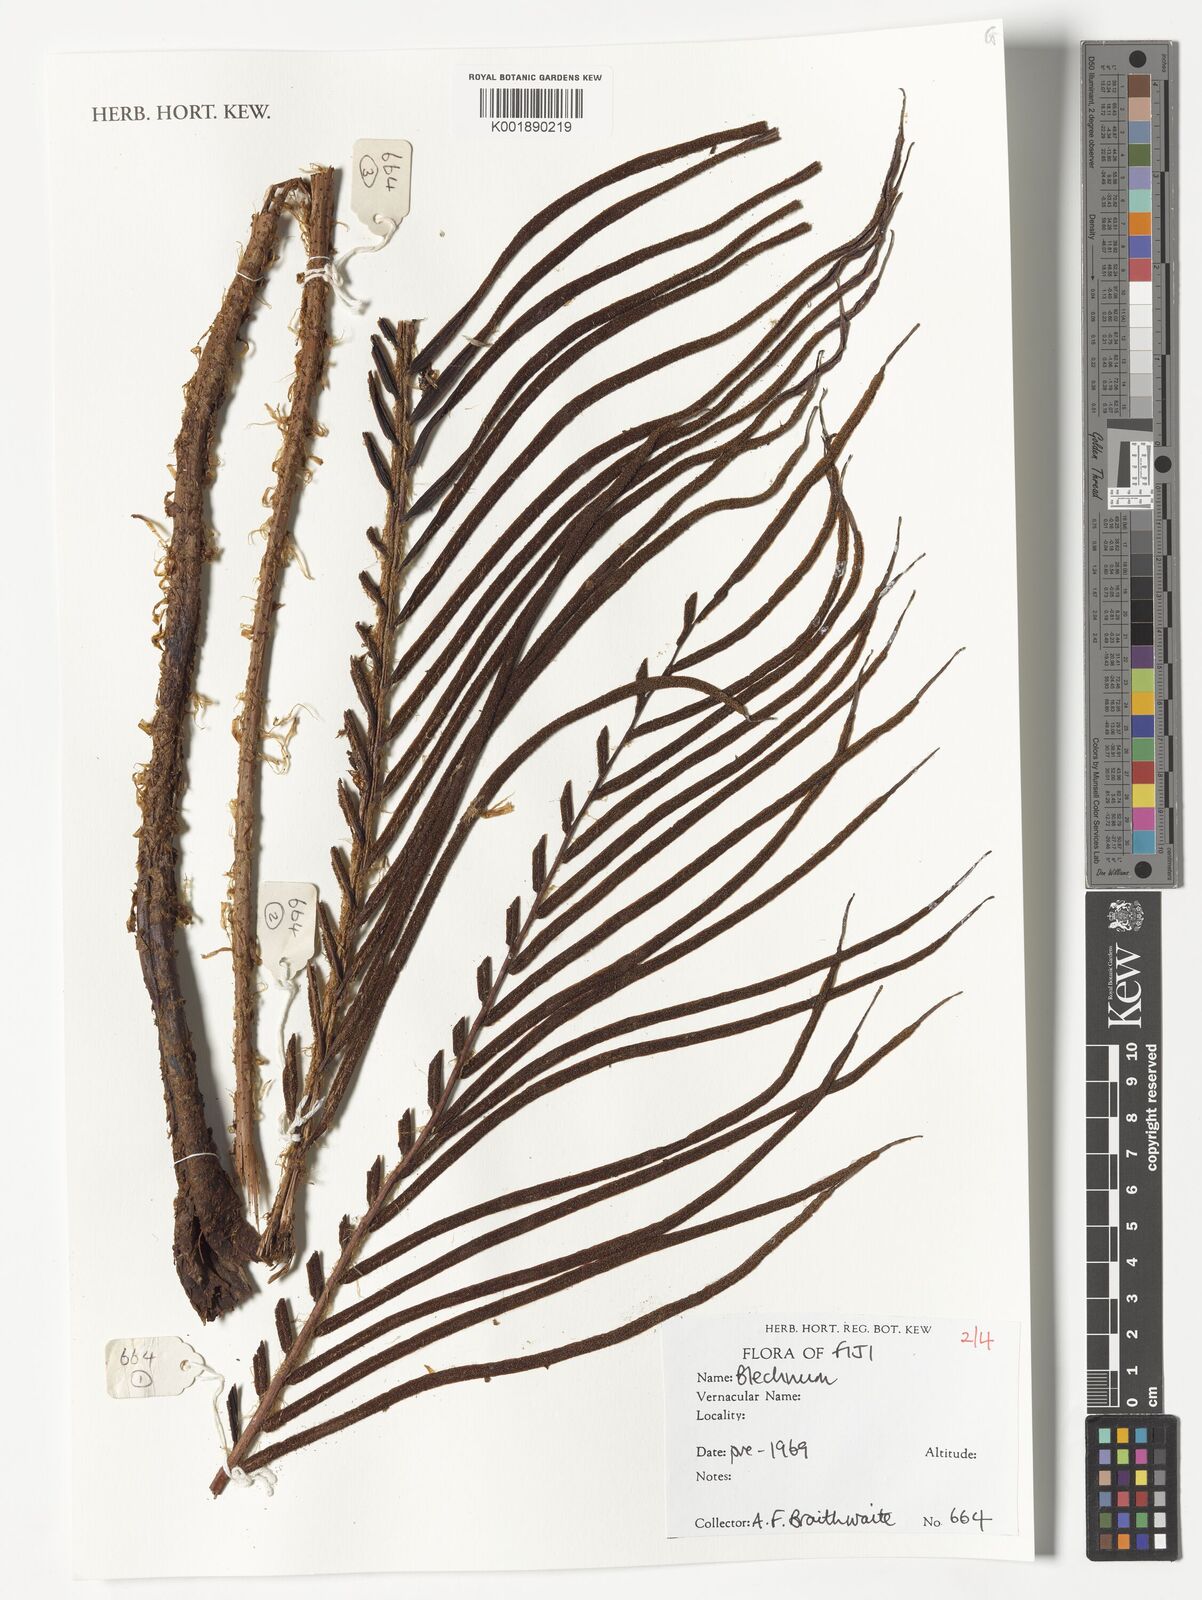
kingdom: Plantae
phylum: Tracheophyta
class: Polypodiopsida
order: Polypodiales
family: Blechnaceae
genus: Blechnum
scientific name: Blechnum
